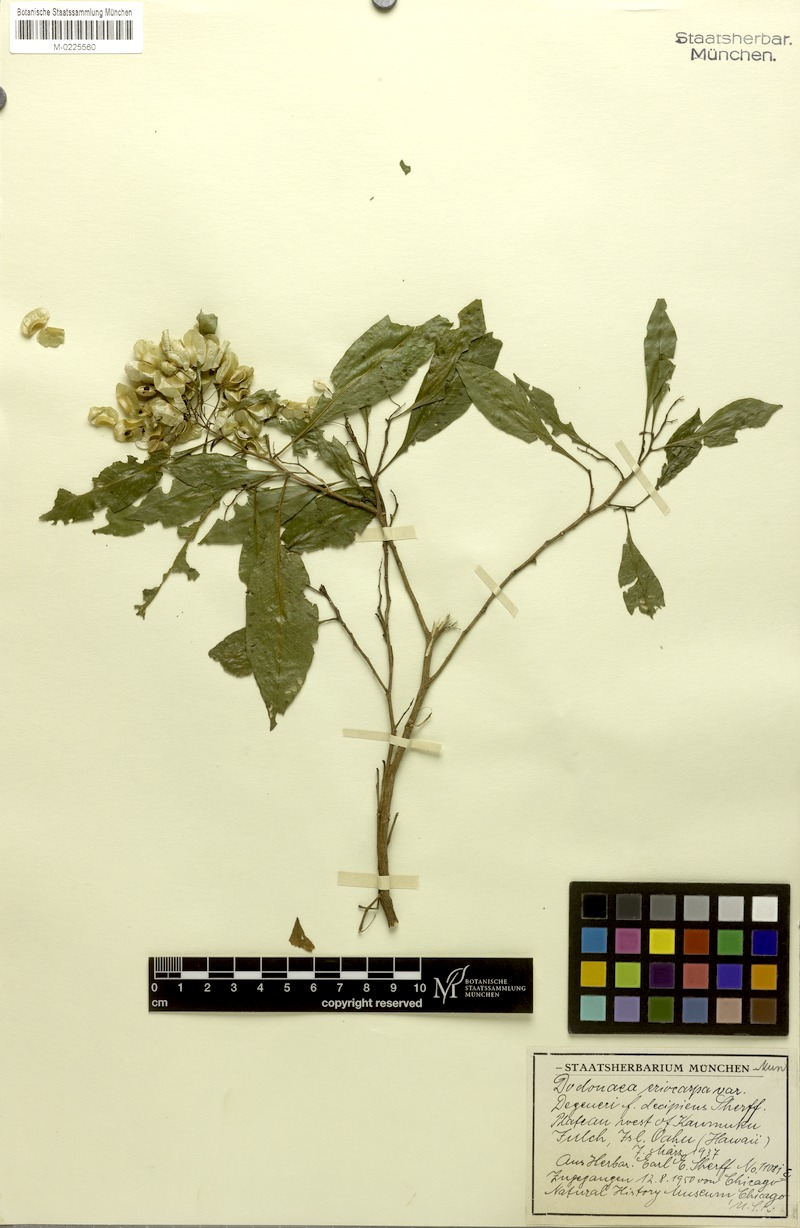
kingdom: Plantae
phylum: Tracheophyta
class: Magnoliopsida
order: Sapindales
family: Sapindaceae
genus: Dodonaea
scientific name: Dodonaea viscosa
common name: Hopbush
